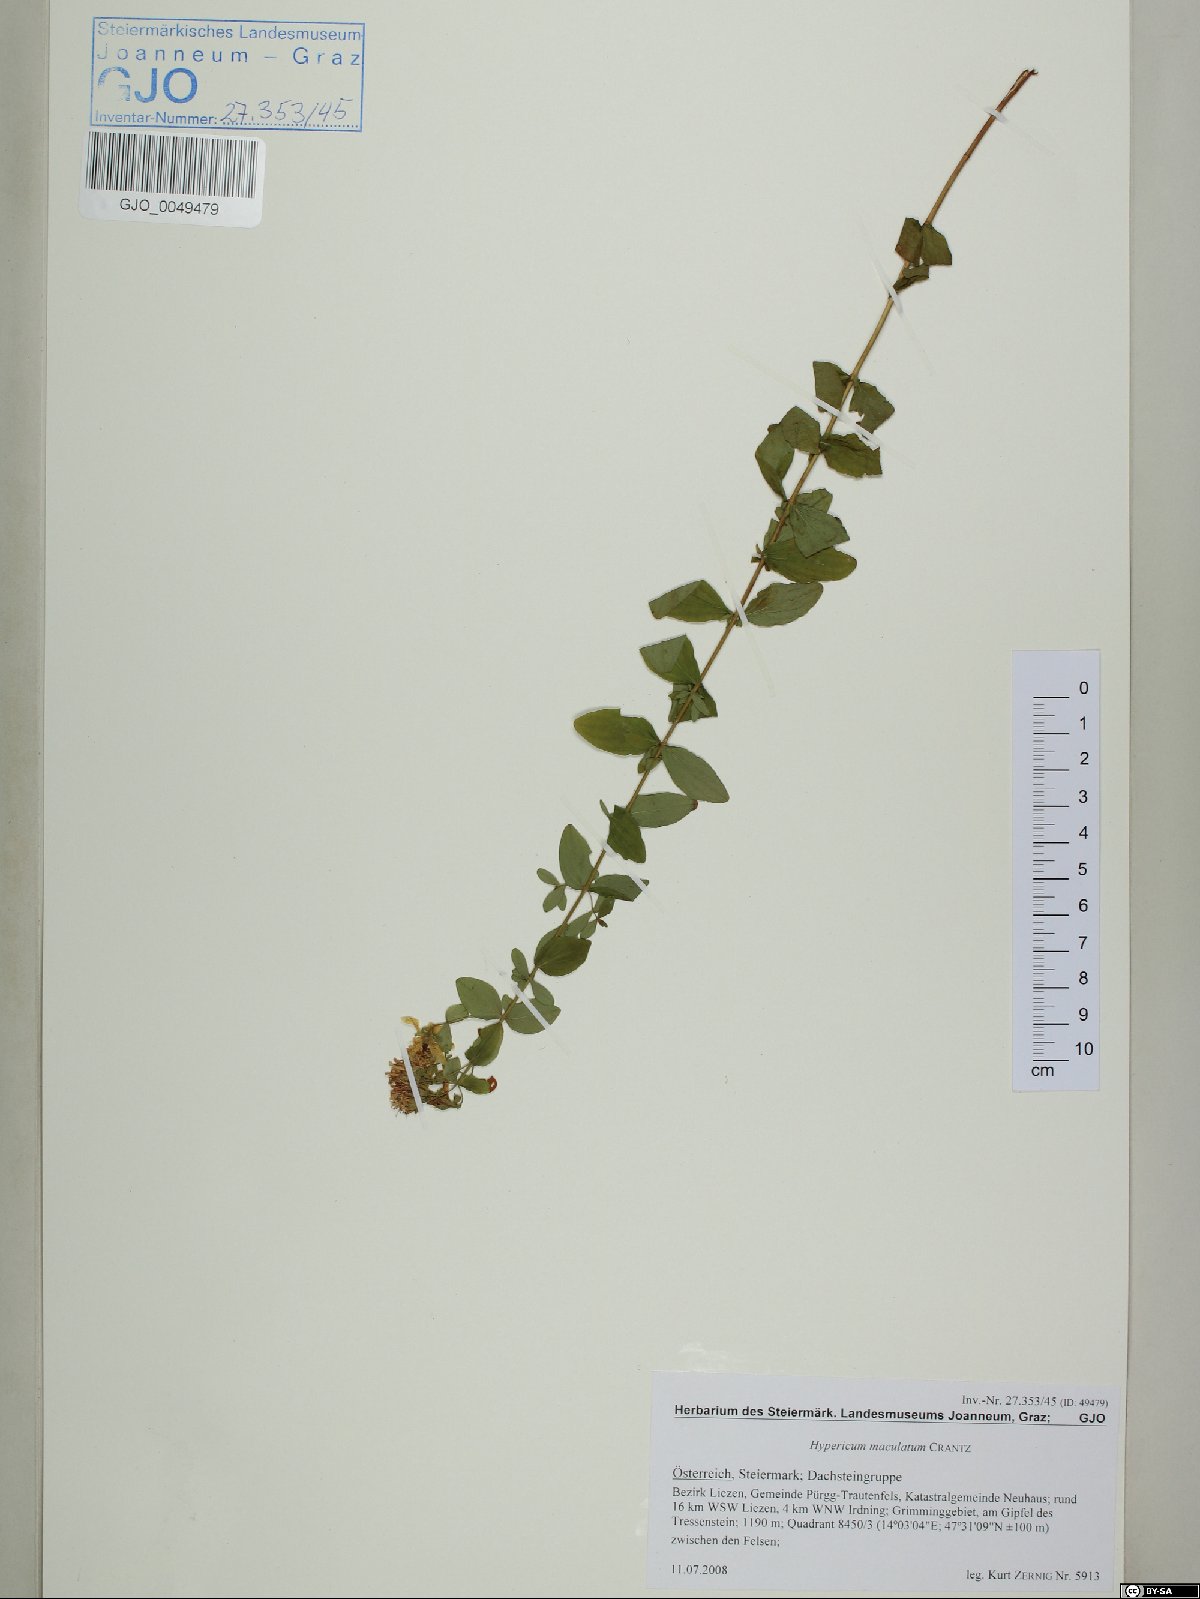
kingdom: Plantae
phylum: Tracheophyta
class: Magnoliopsida
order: Malpighiales
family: Hypericaceae
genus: Hypericum
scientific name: Hypericum maculatum
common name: Imperforate st. john's-wort
